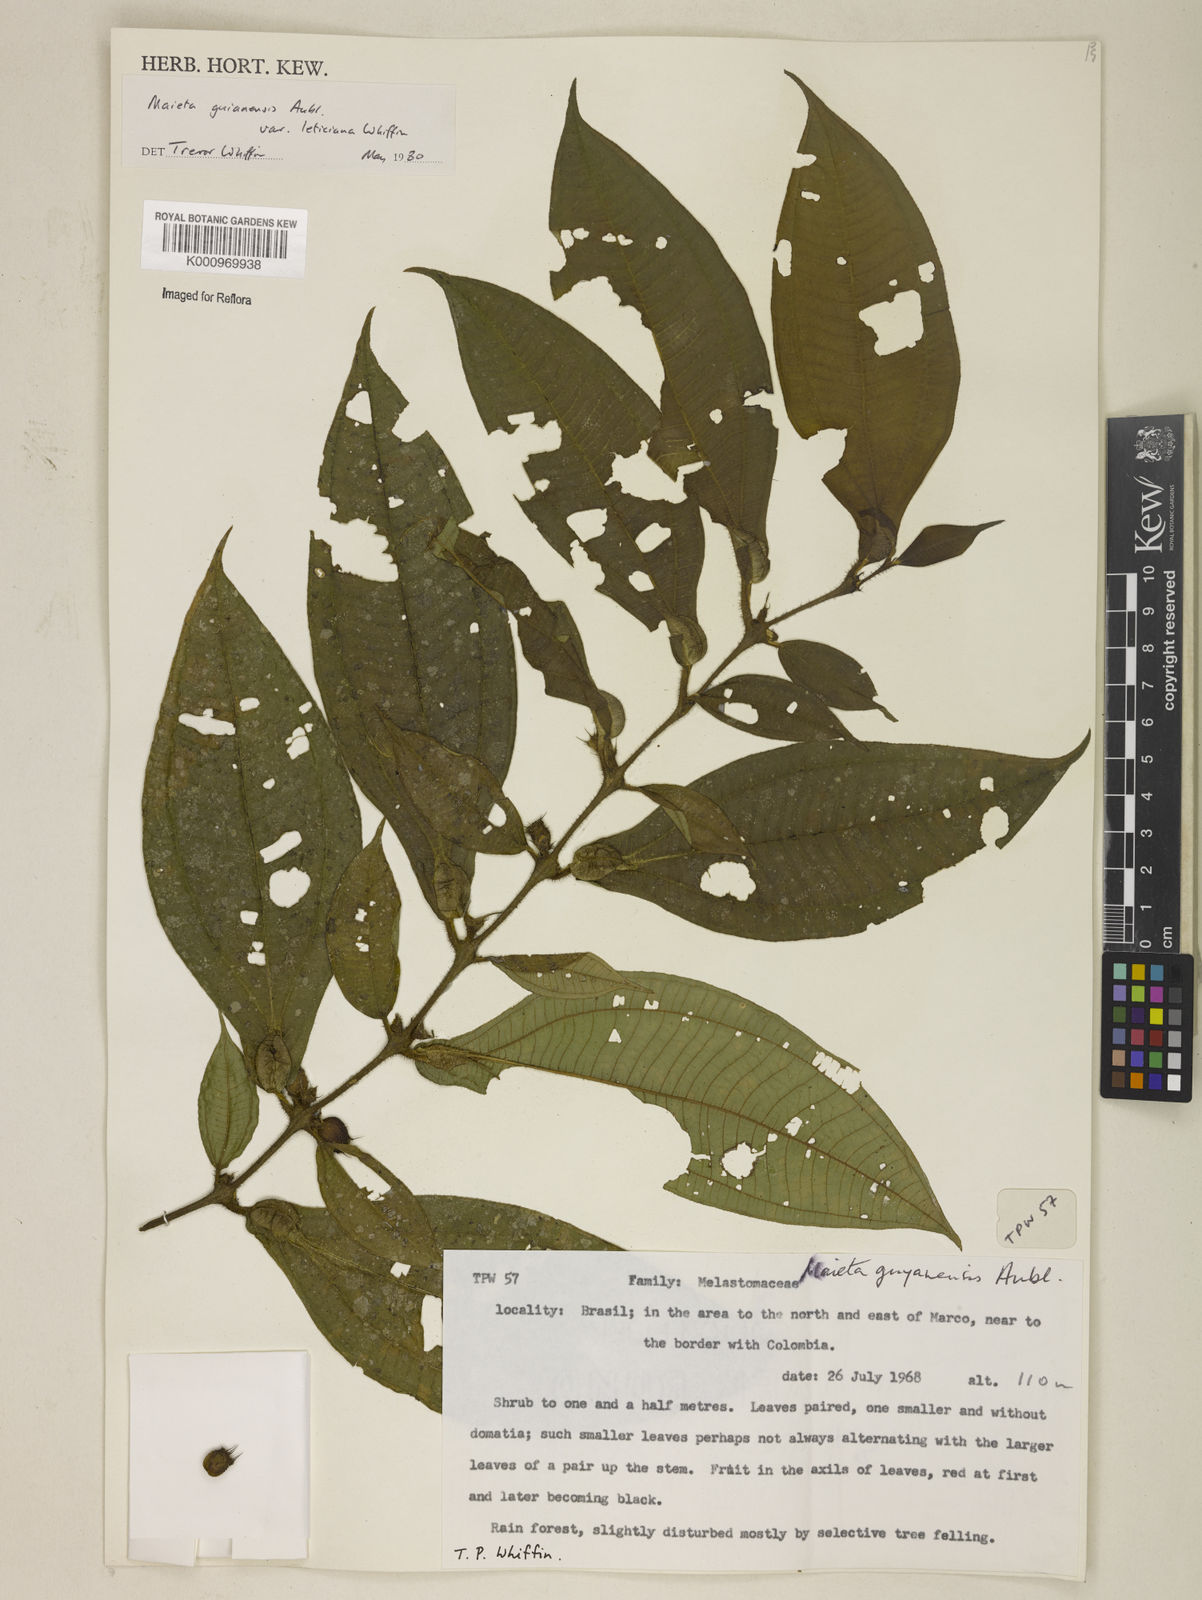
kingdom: Plantae
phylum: Tracheophyta
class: Magnoliopsida
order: Myrtales
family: Melastomataceae
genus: Miconia
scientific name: Miconia mayeta
